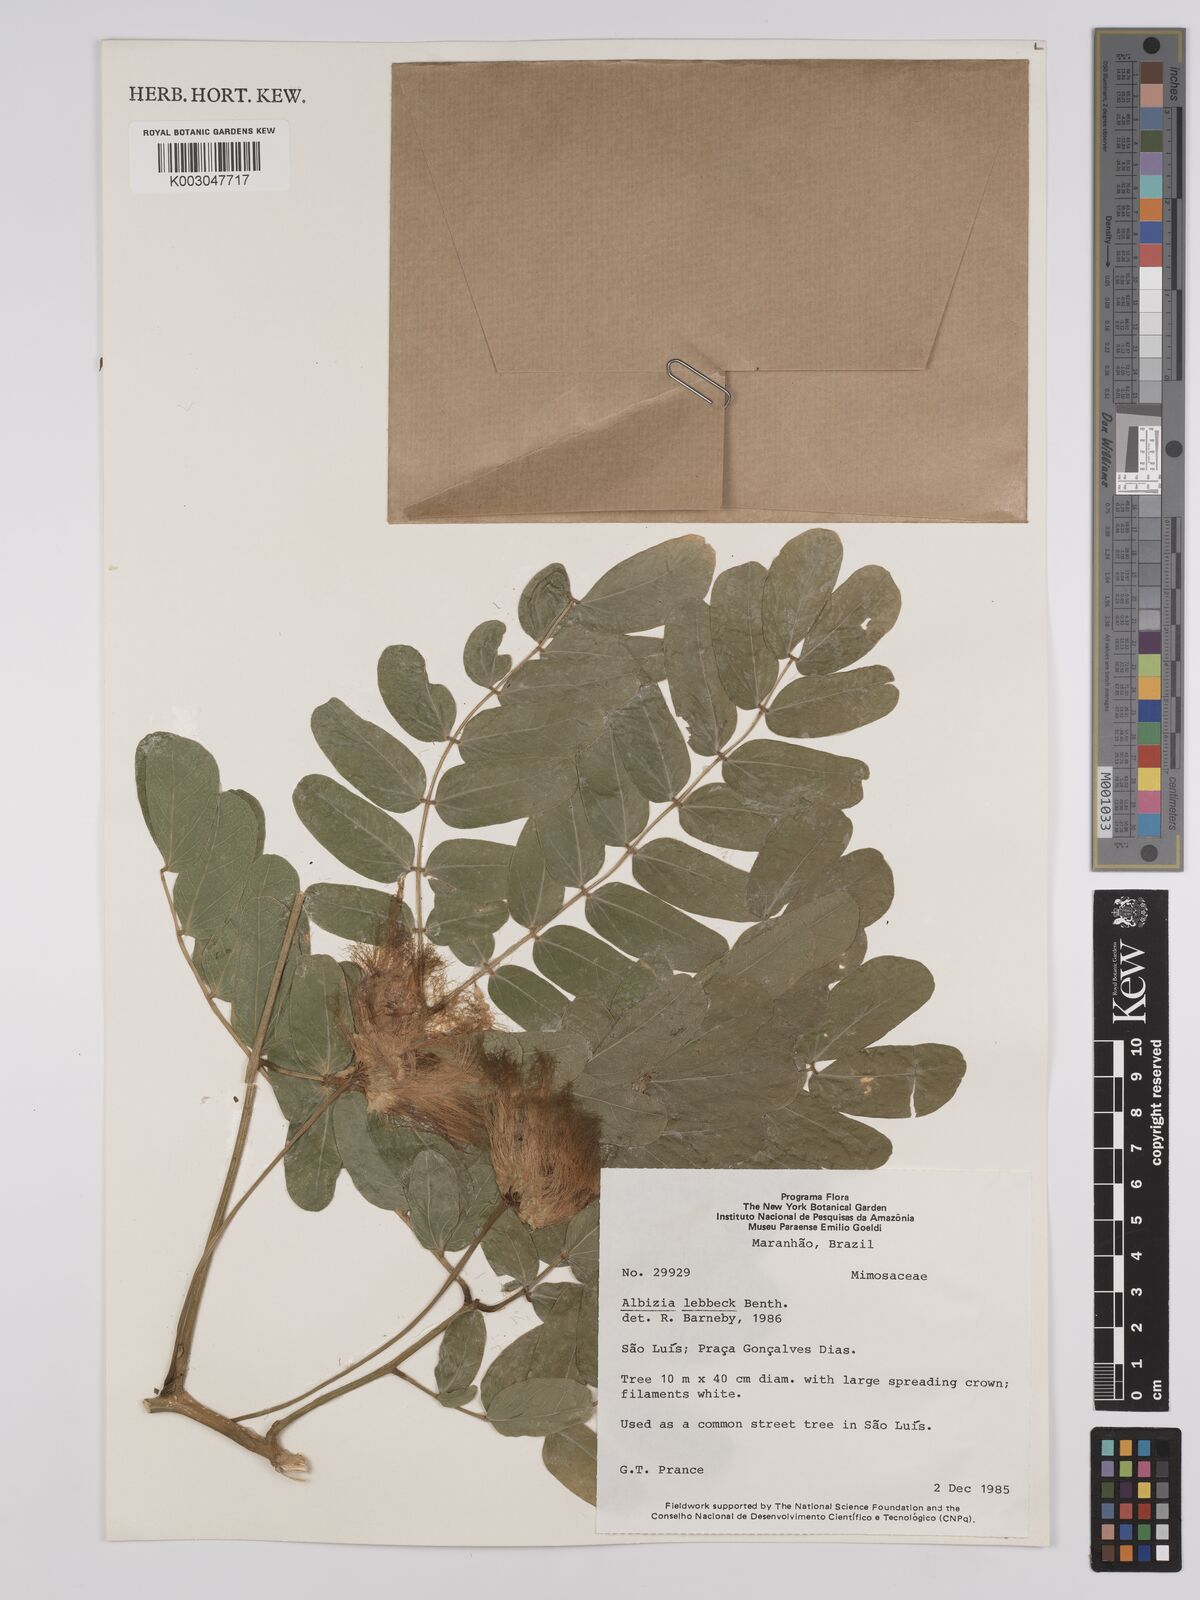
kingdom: Plantae
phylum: Tracheophyta
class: Magnoliopsida
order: Fabales
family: Fabaceae
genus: Albizia
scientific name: Albizia lebbeck
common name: Woman's tongue
